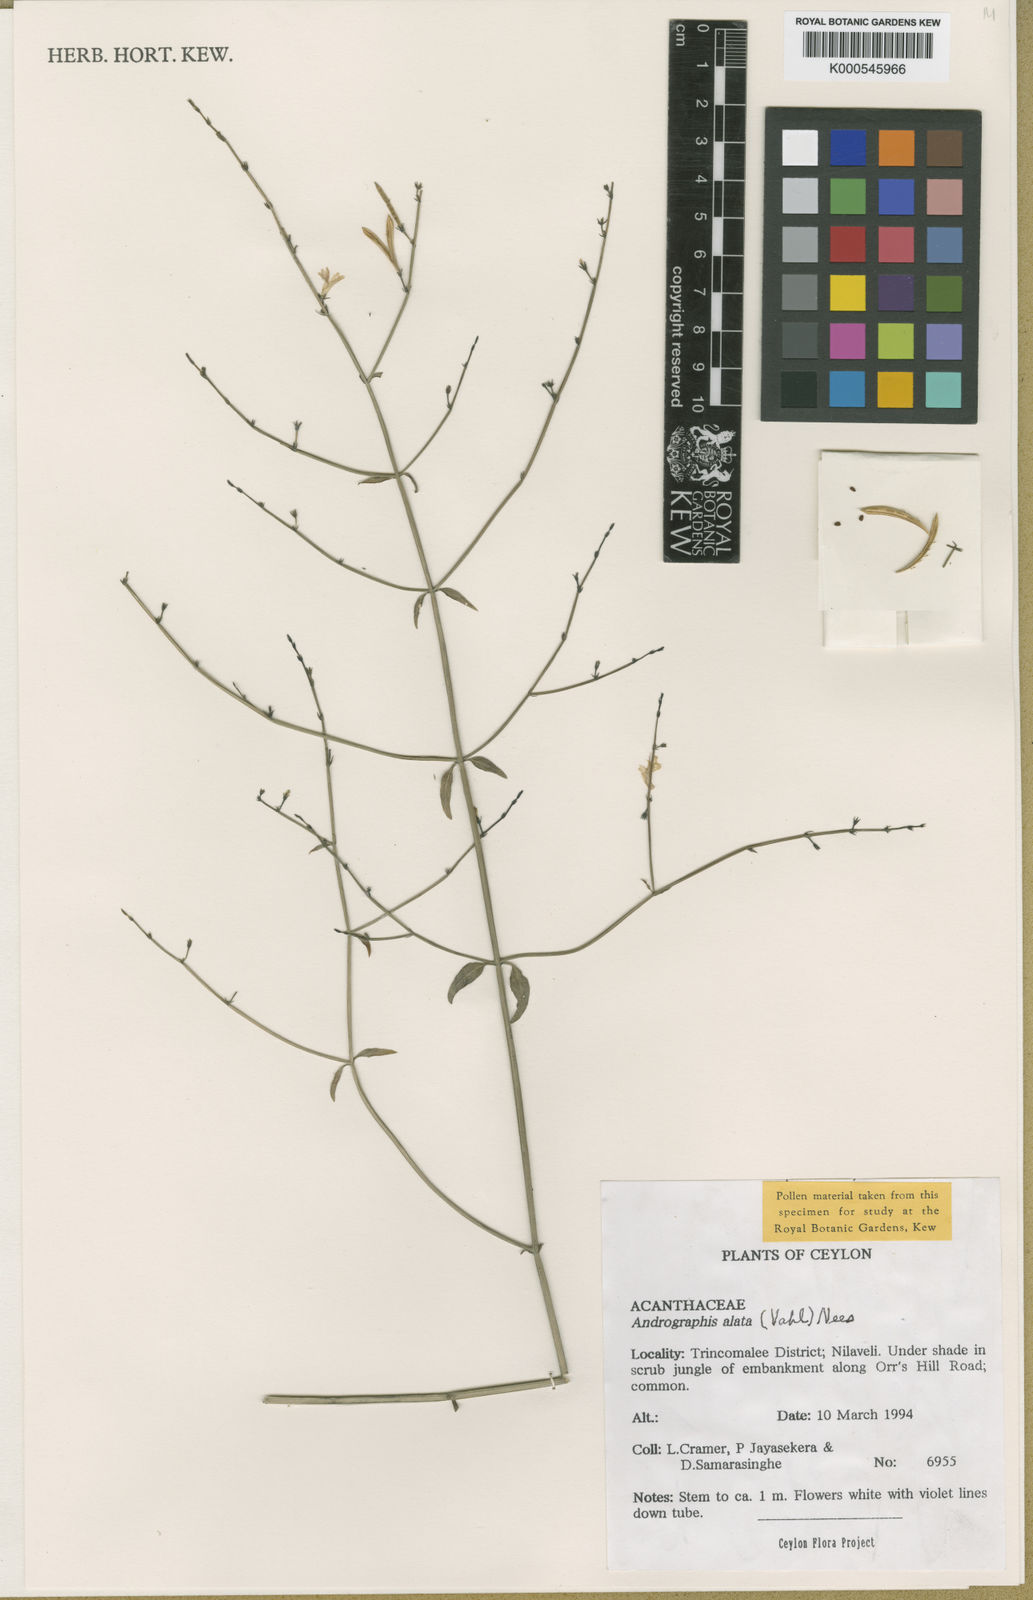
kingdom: Plantae
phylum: Tracheophyta
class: Magnoliopsida
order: Lamiales
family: Acanthaceae
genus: Andrographis
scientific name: Andrographis alata
